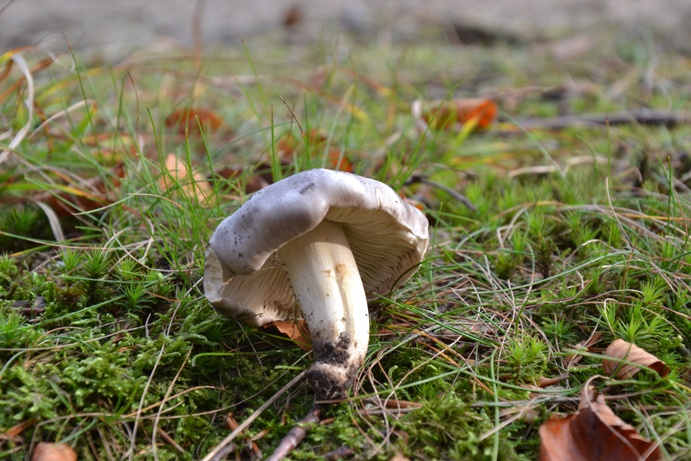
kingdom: Fungi
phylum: Basidiomycota
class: Agaricomycetes
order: Agaricales
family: Tricholomataceae
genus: Tricholoma
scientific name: Tricholoma portentosum
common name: grå ridderhat
